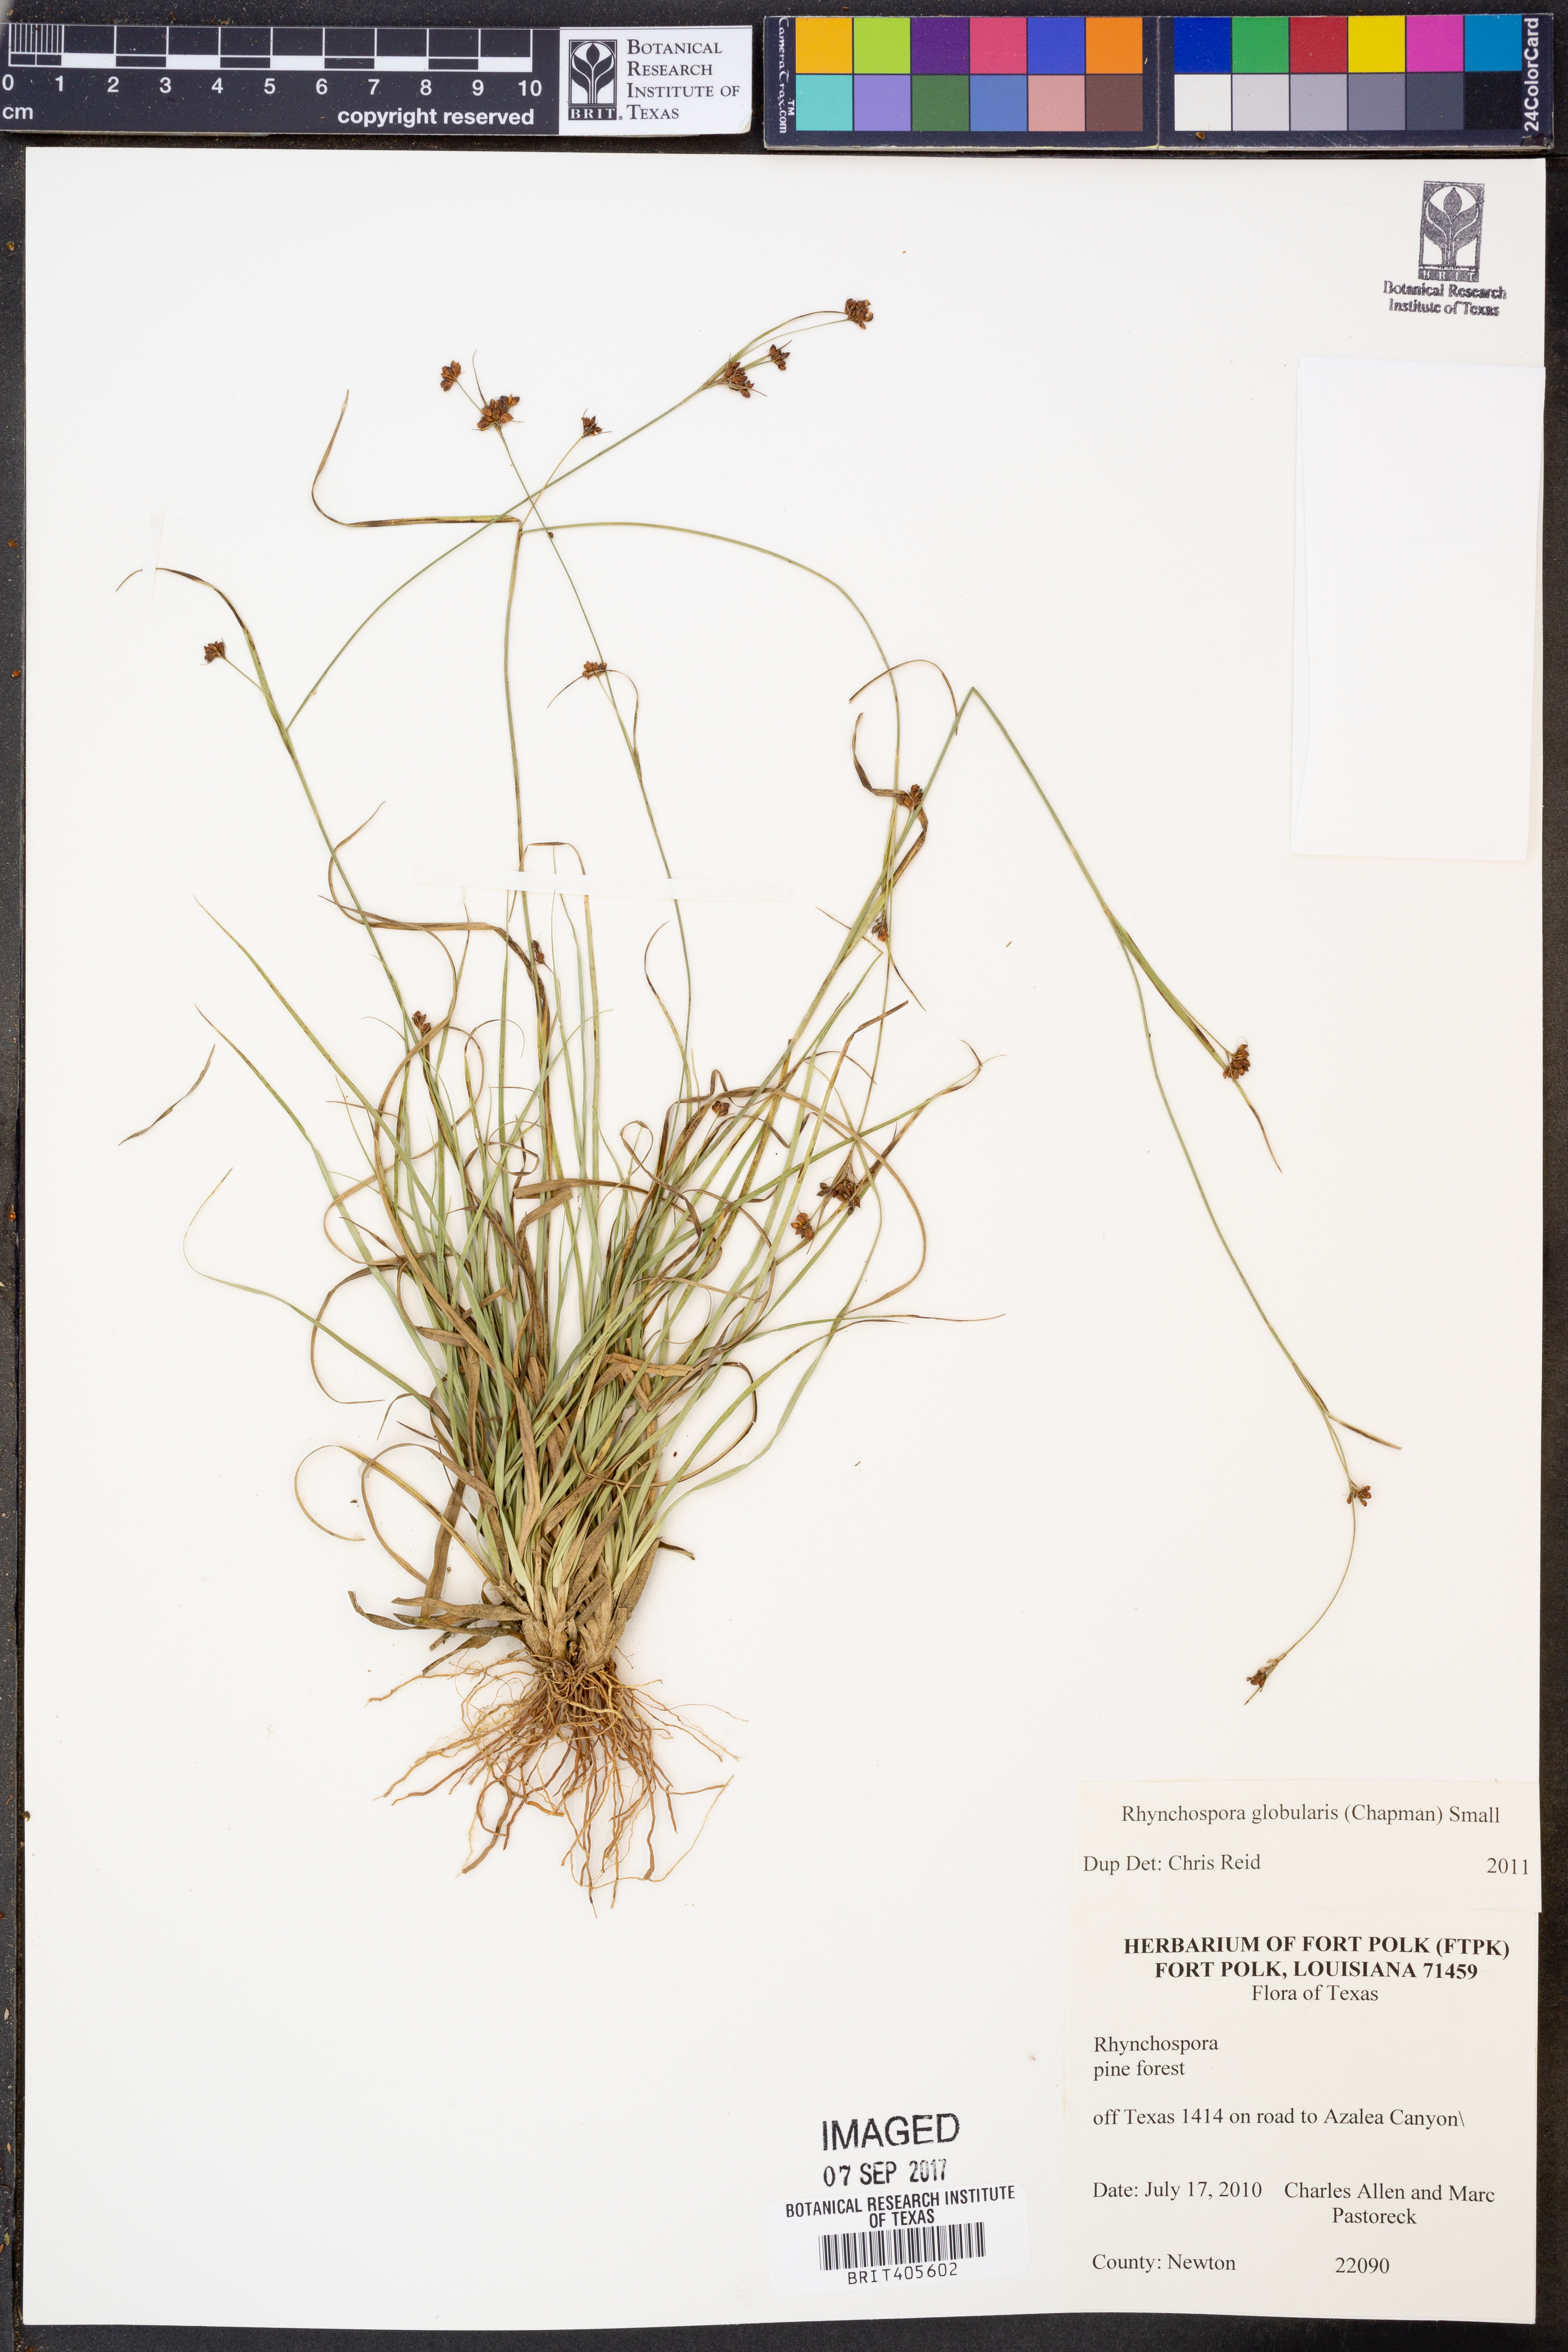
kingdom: Plantae
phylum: Tracheophyta
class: Liliopsida
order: Poales
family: Cyperaceae
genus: Rhynchospora
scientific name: Rhynchospora globularis
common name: Globe beaksedge
